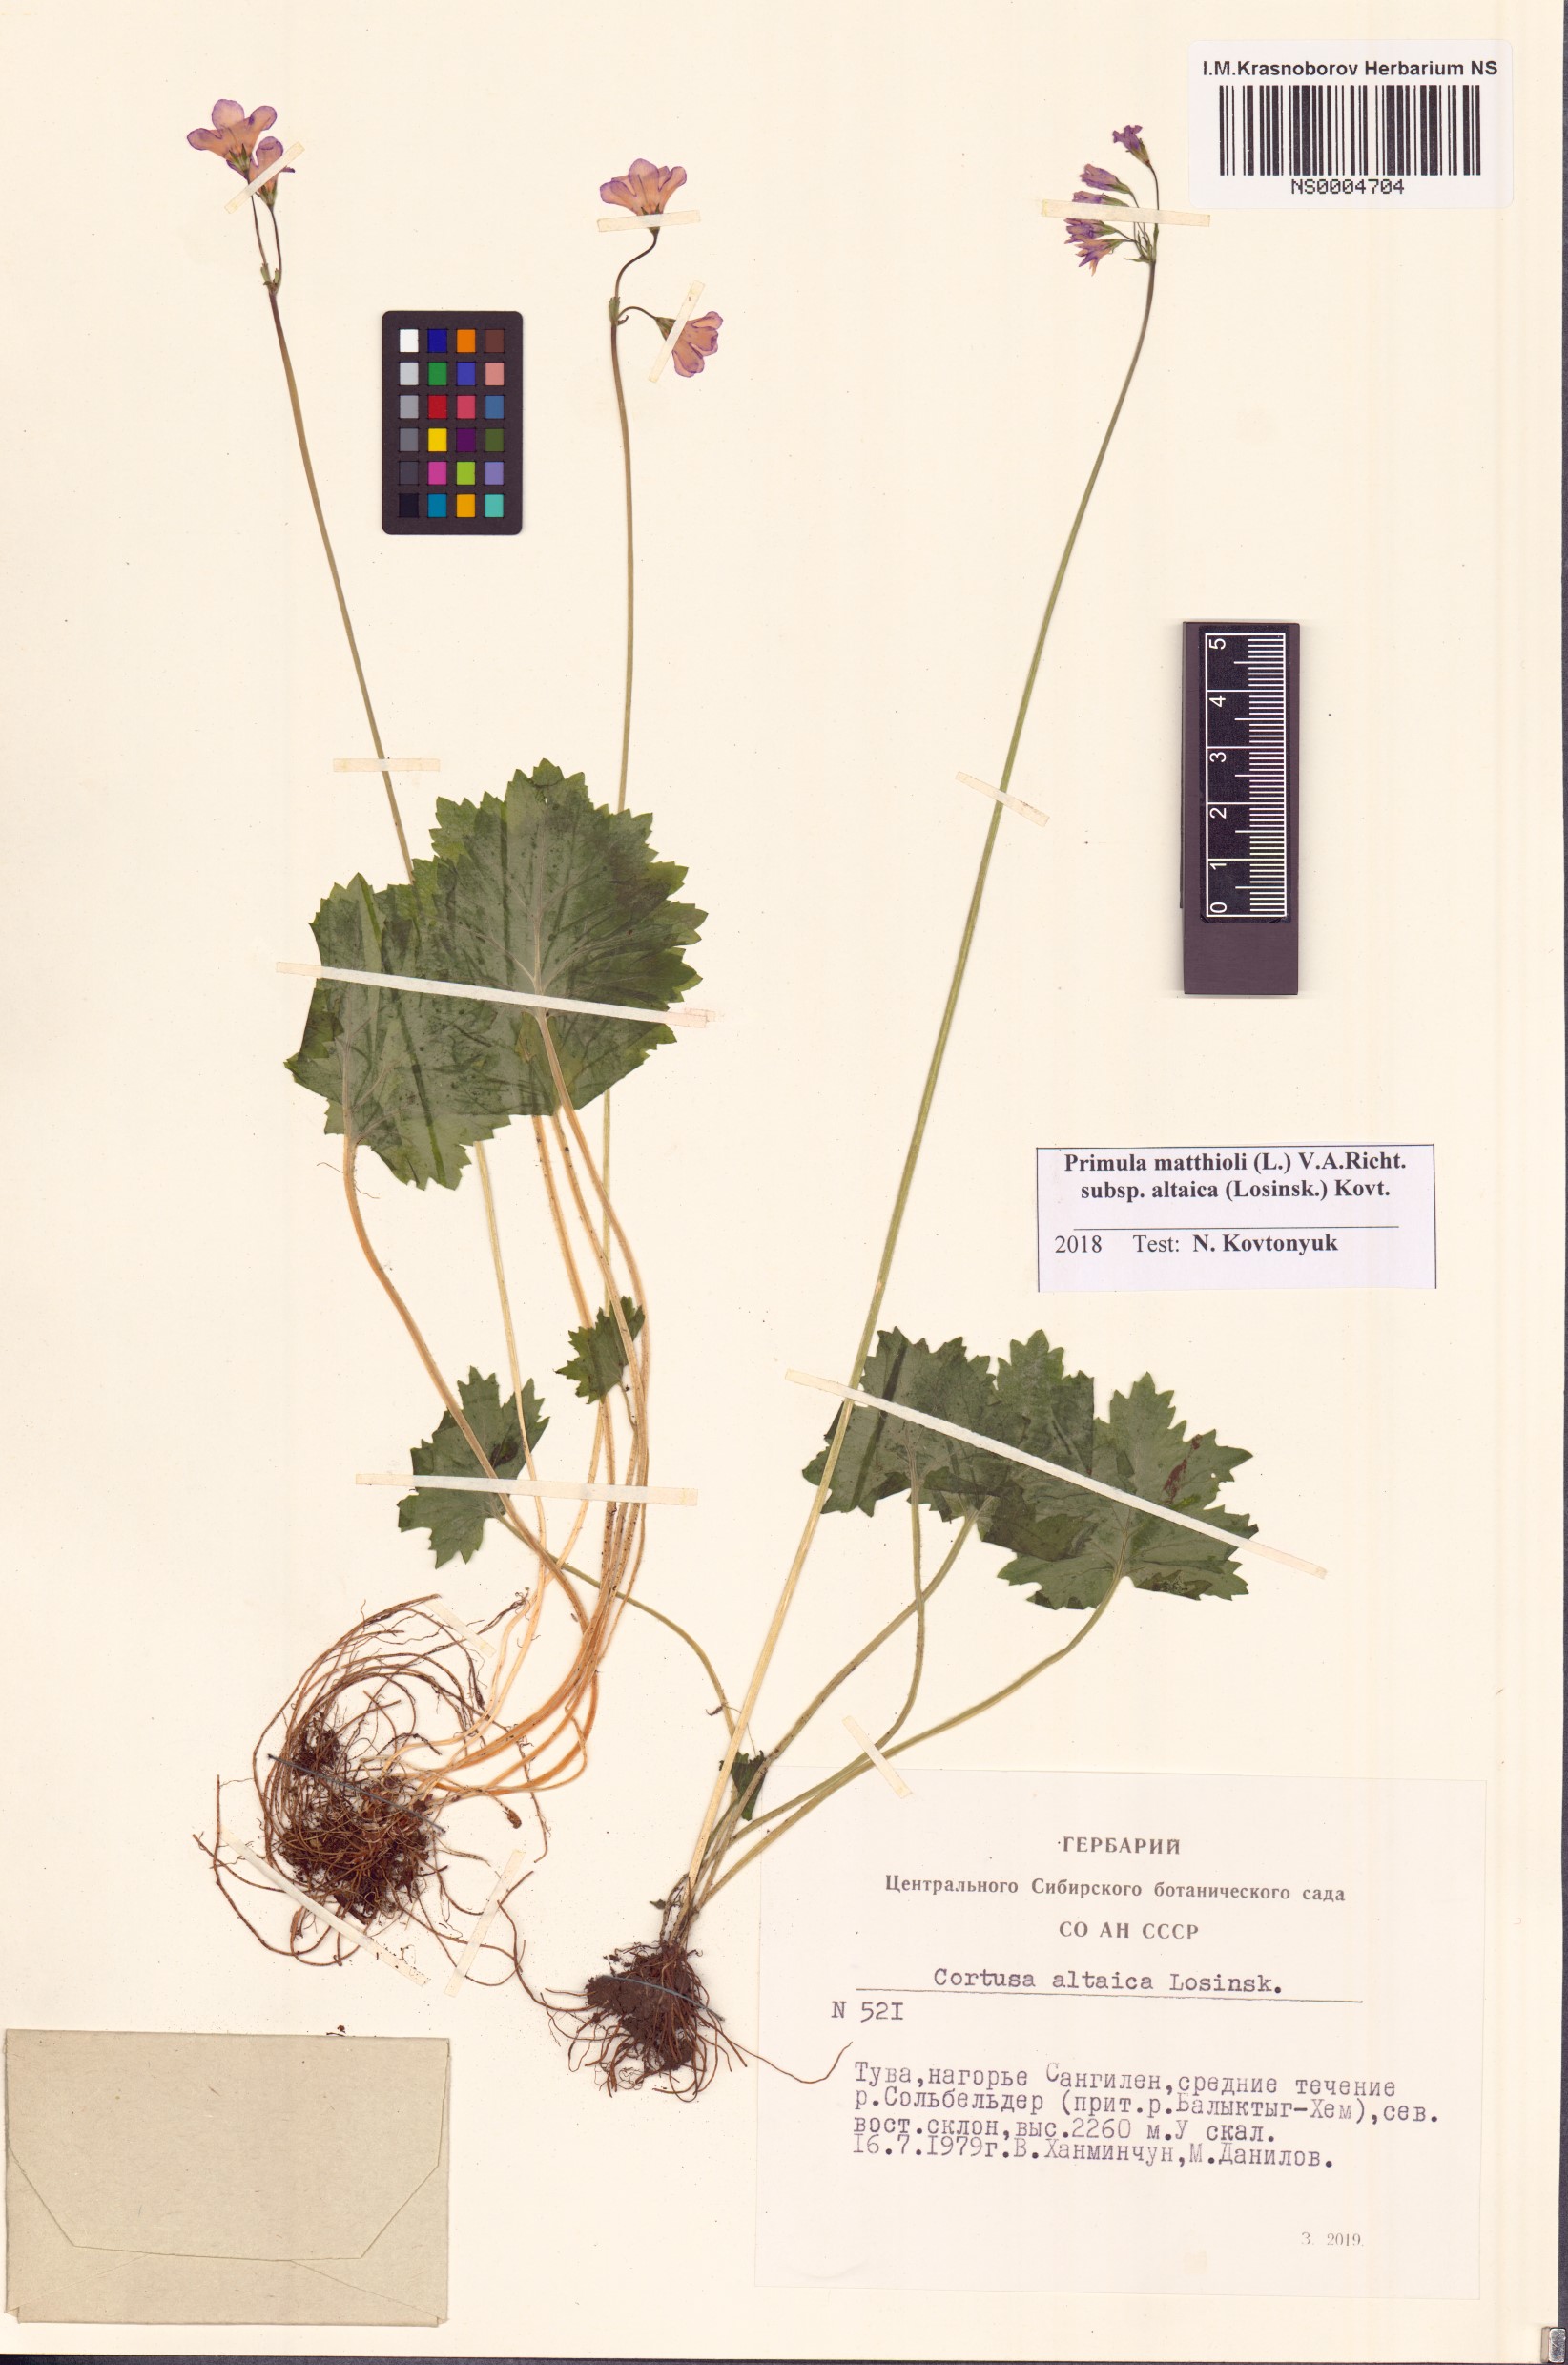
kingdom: Plantae
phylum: Tracheophyta
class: Magnoliopsida
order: Ericales
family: Primulaceae
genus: Primula
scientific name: Primula matthioli
